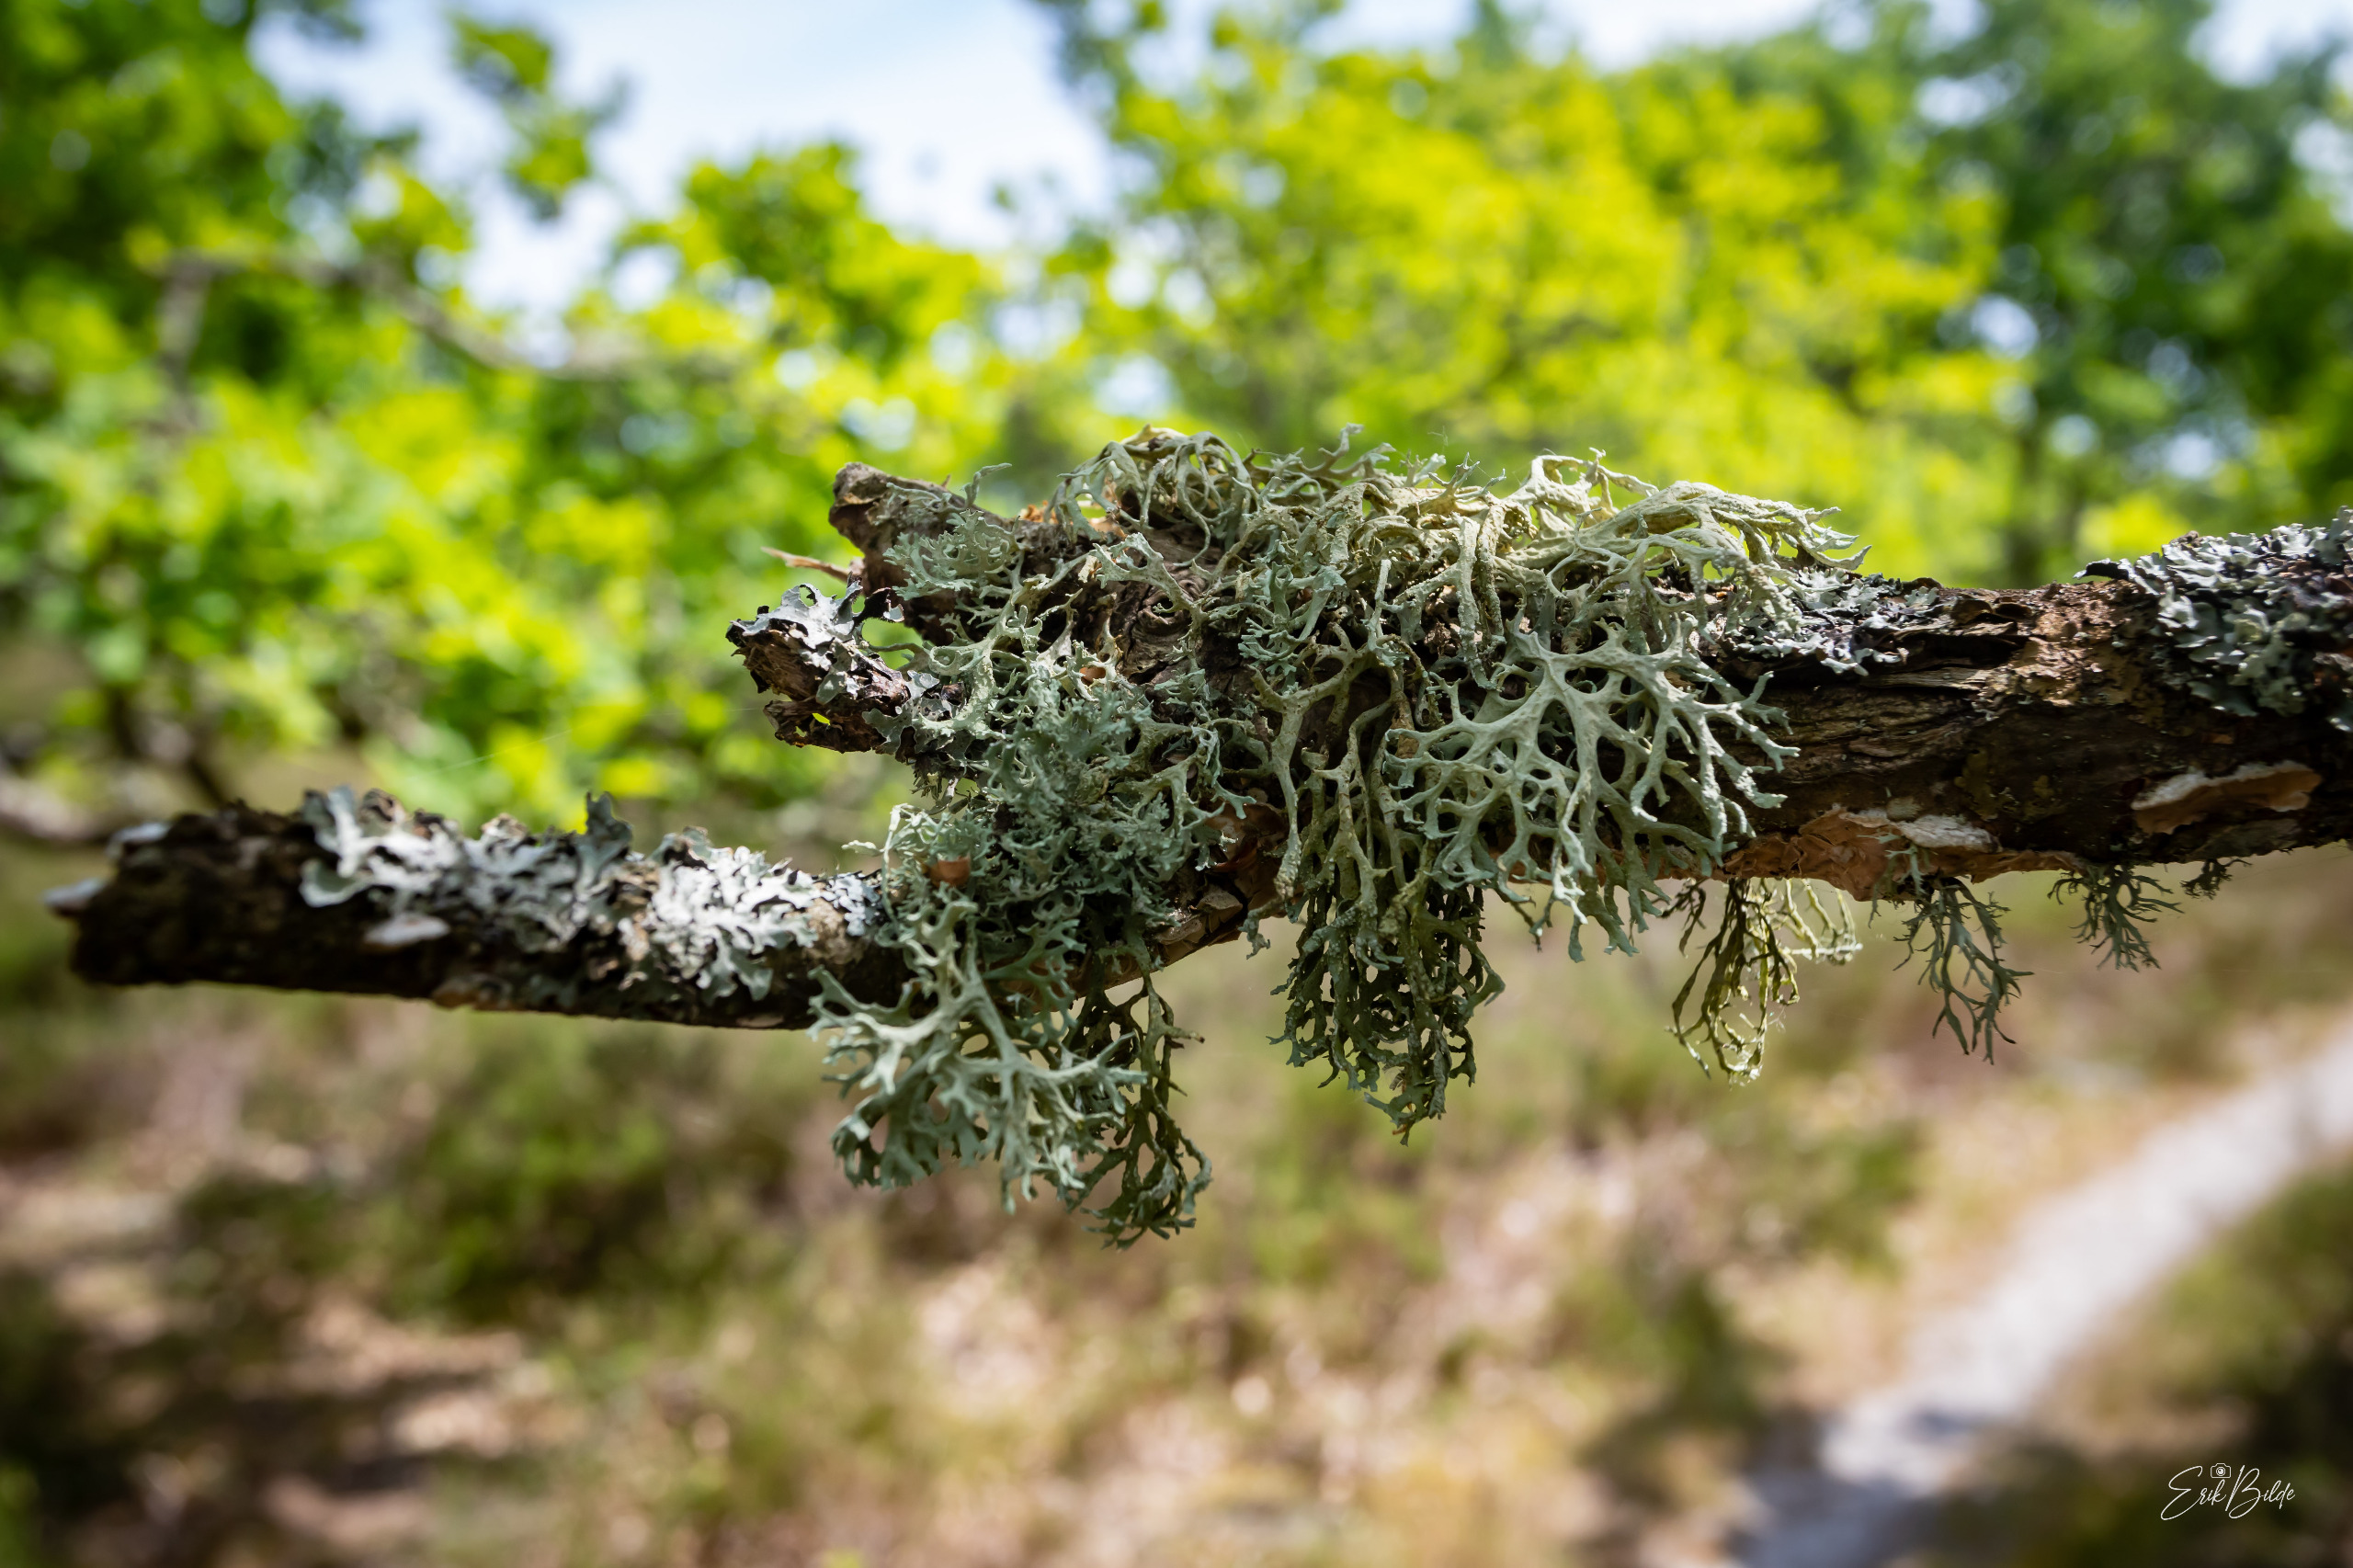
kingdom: Fungi
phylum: Ascomycota
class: Lecanoromycetes
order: Lecanorales
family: Parmeliaceae
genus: Evernia
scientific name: Evernia prunastri
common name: Almindelig slåenlav
